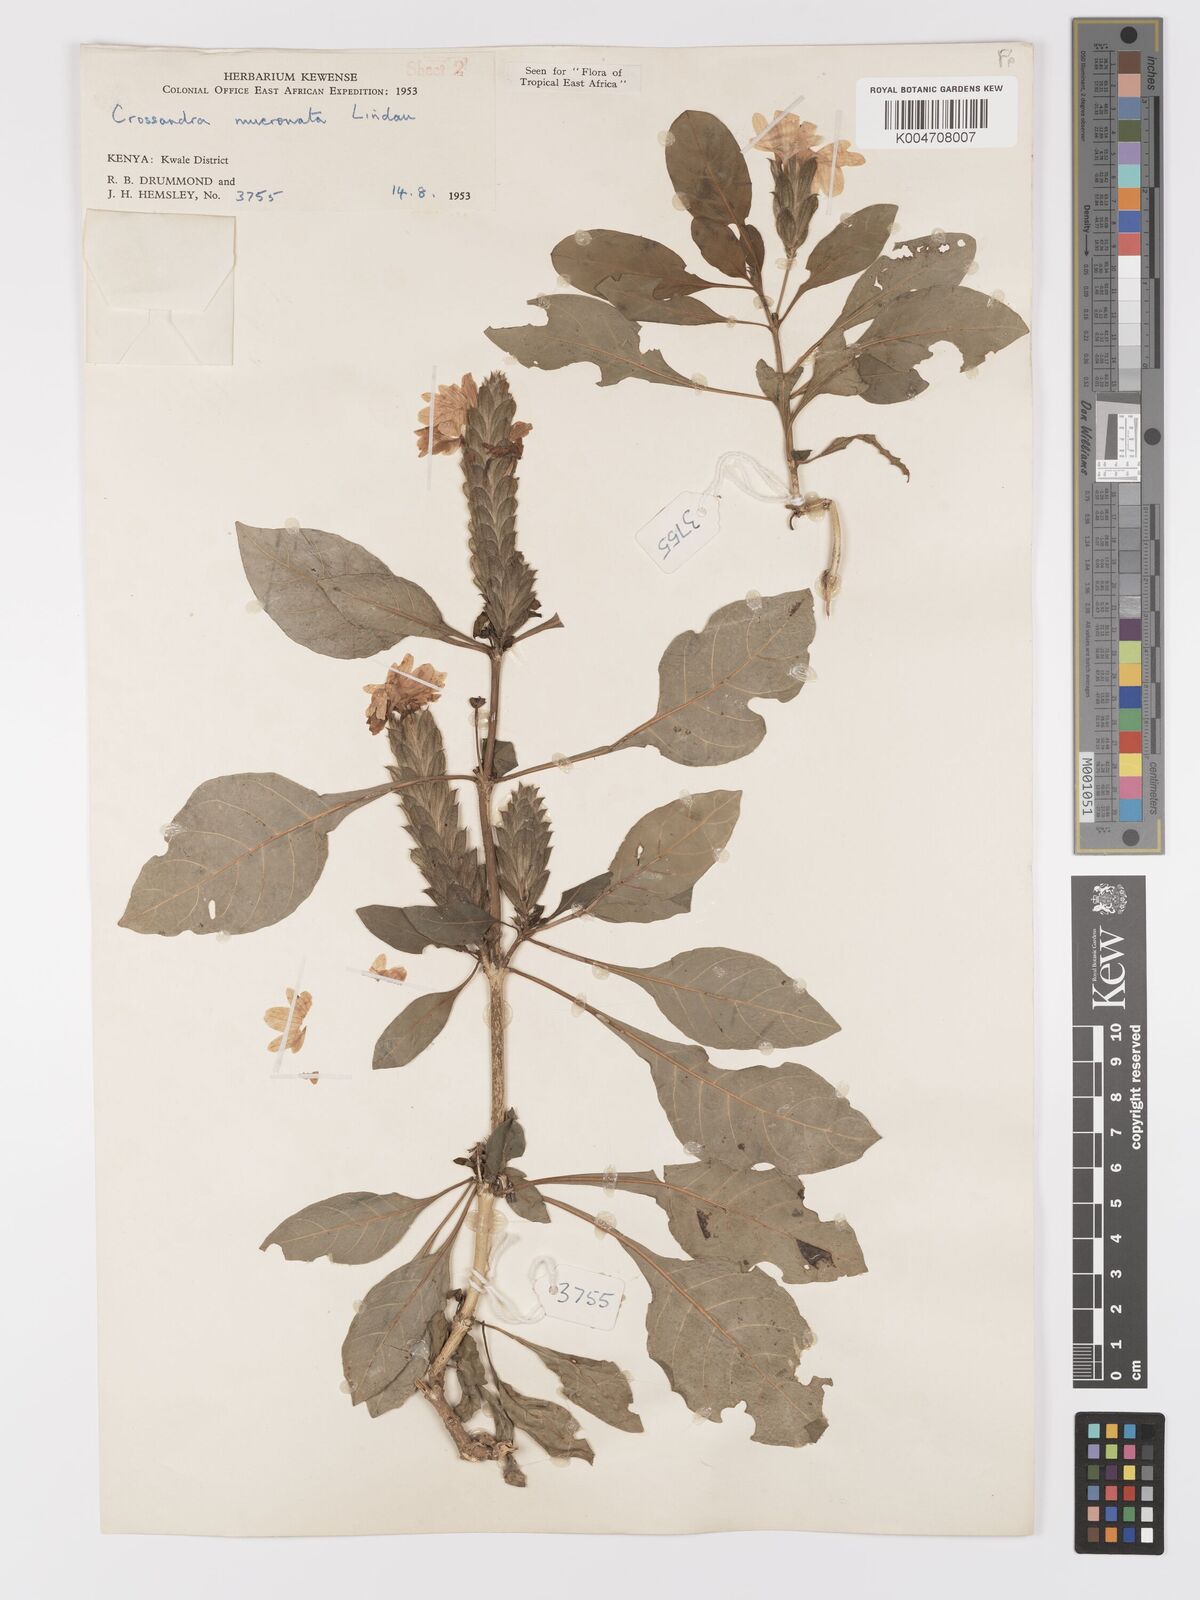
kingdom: Plantae
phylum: Tracheophyta
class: Magnoliopsida
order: Lamiales
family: Acanthaceae
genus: Crossandra
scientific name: Crossandra mucronata
